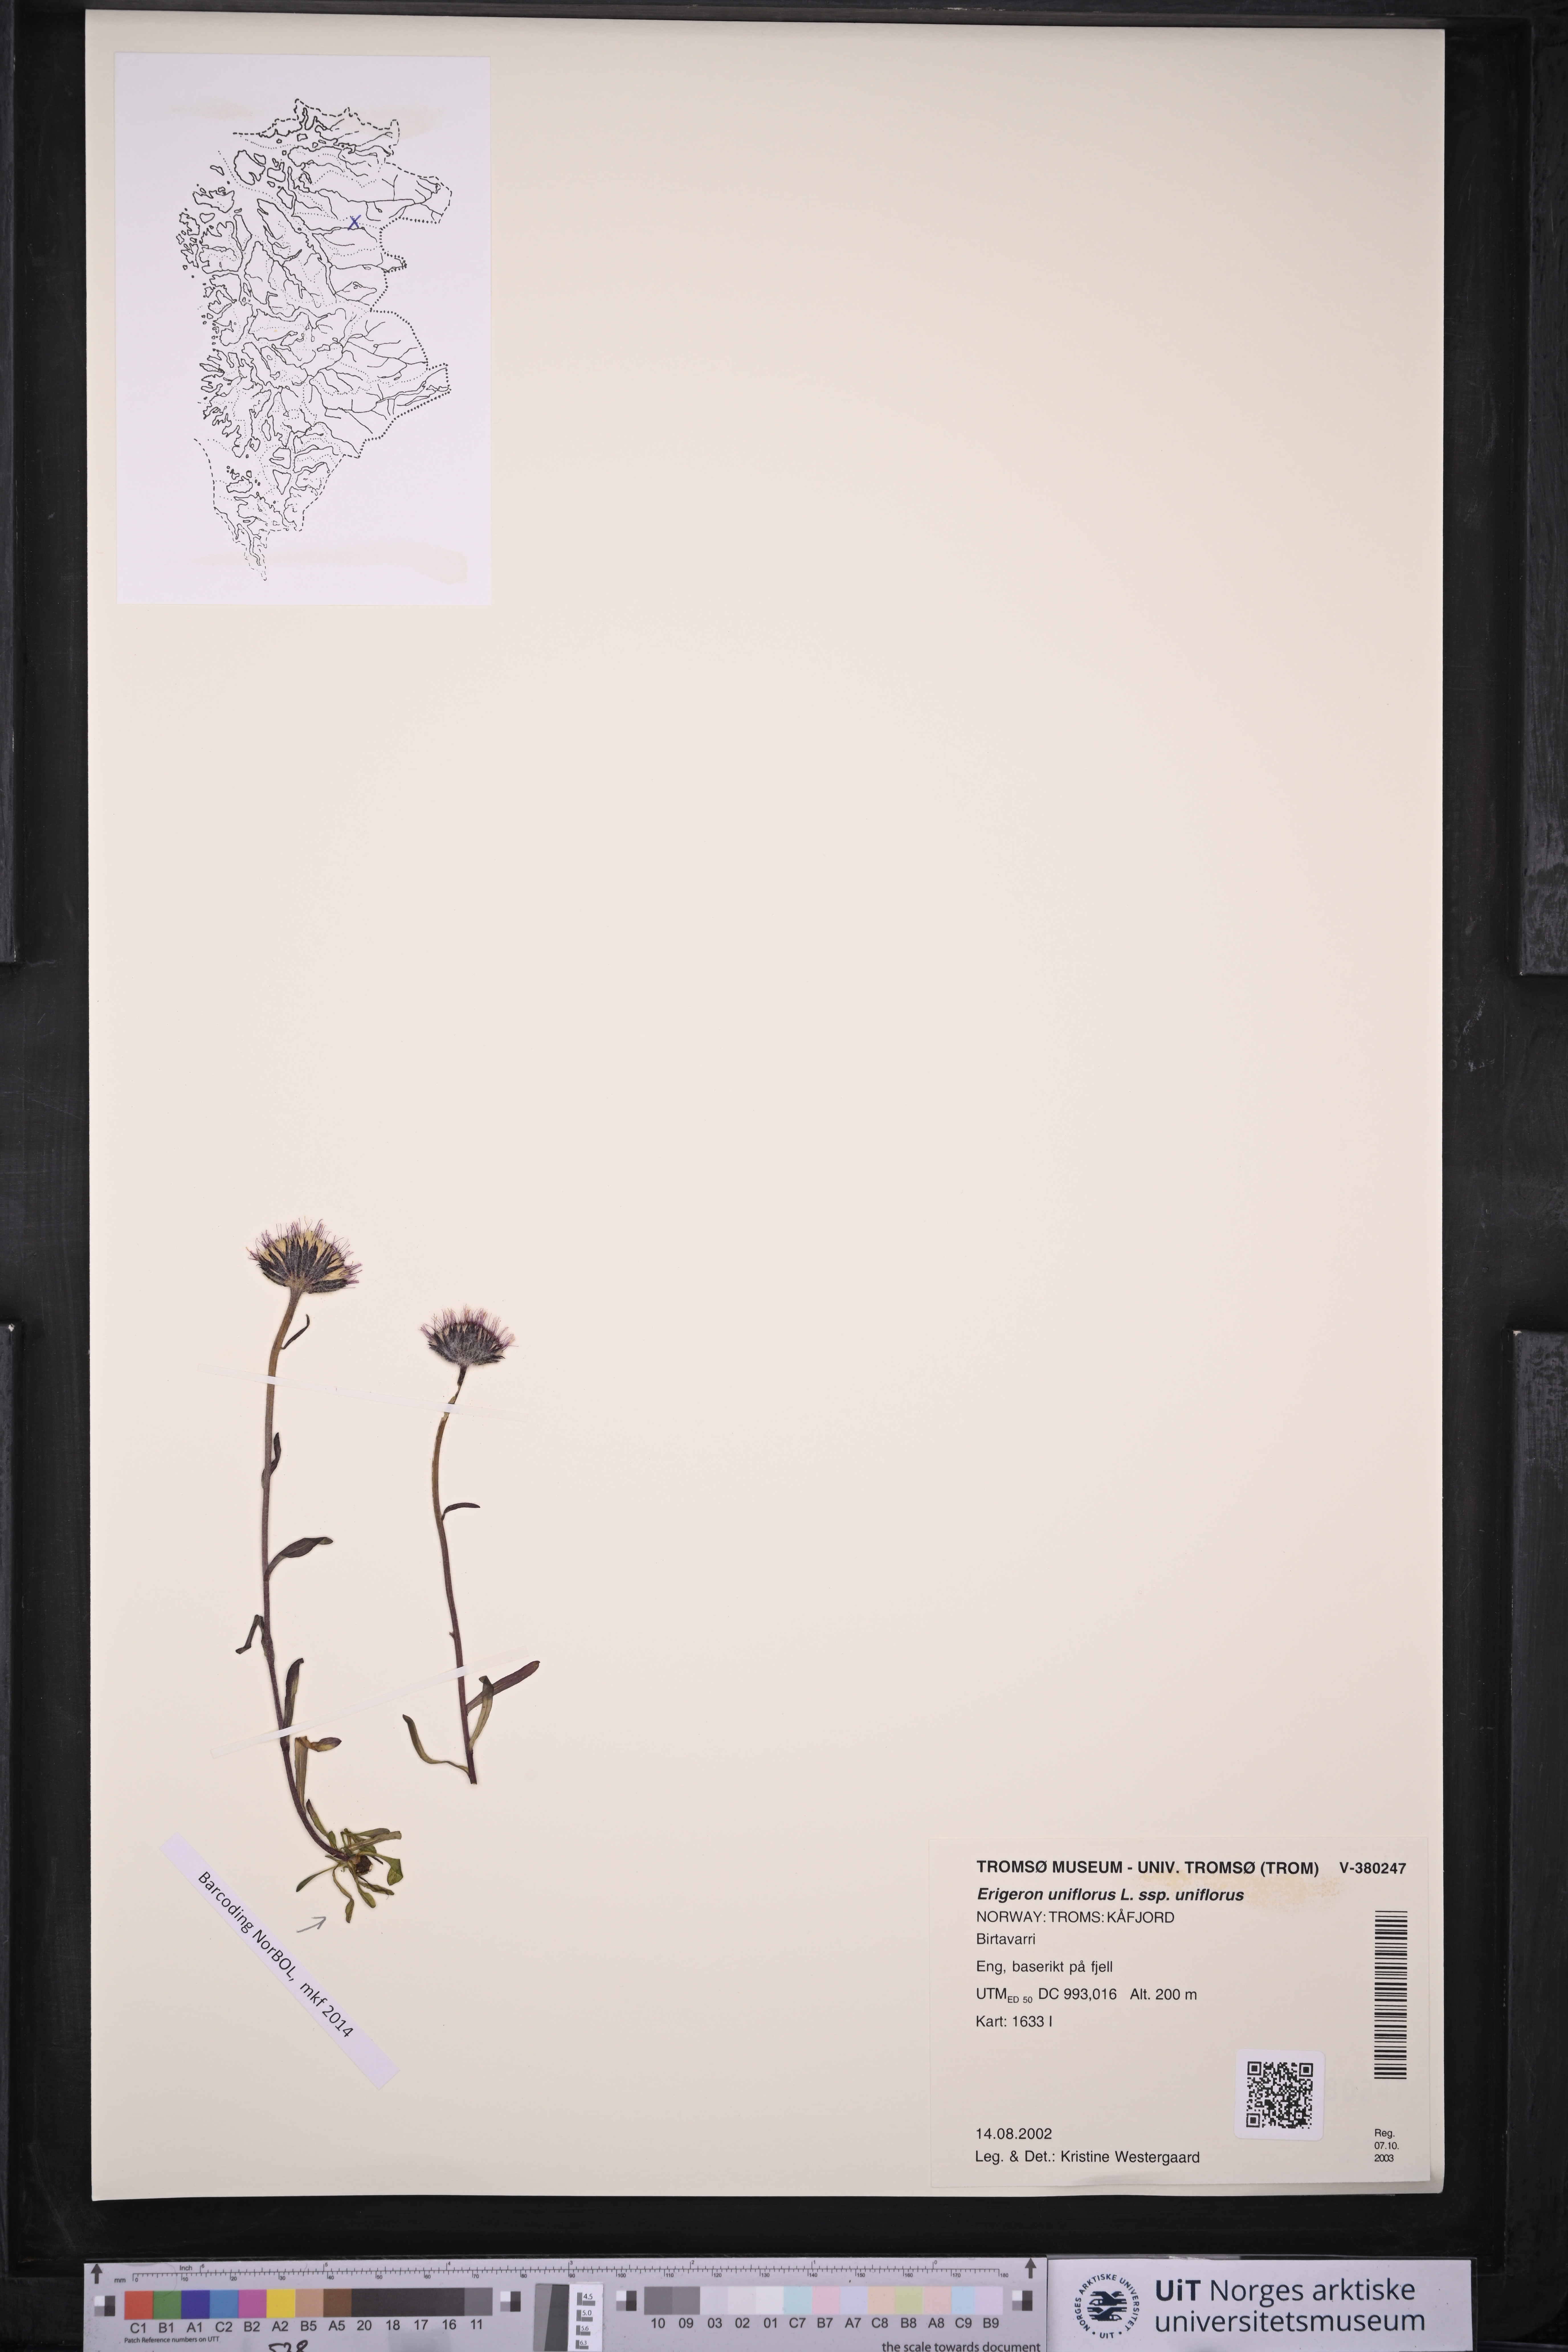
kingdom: Plantae
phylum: Tracheophyta
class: Magnoliopsida
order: Asterales
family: Asteraceae
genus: Erigeron
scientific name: Erigeron uniflorus
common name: Northern daisy
